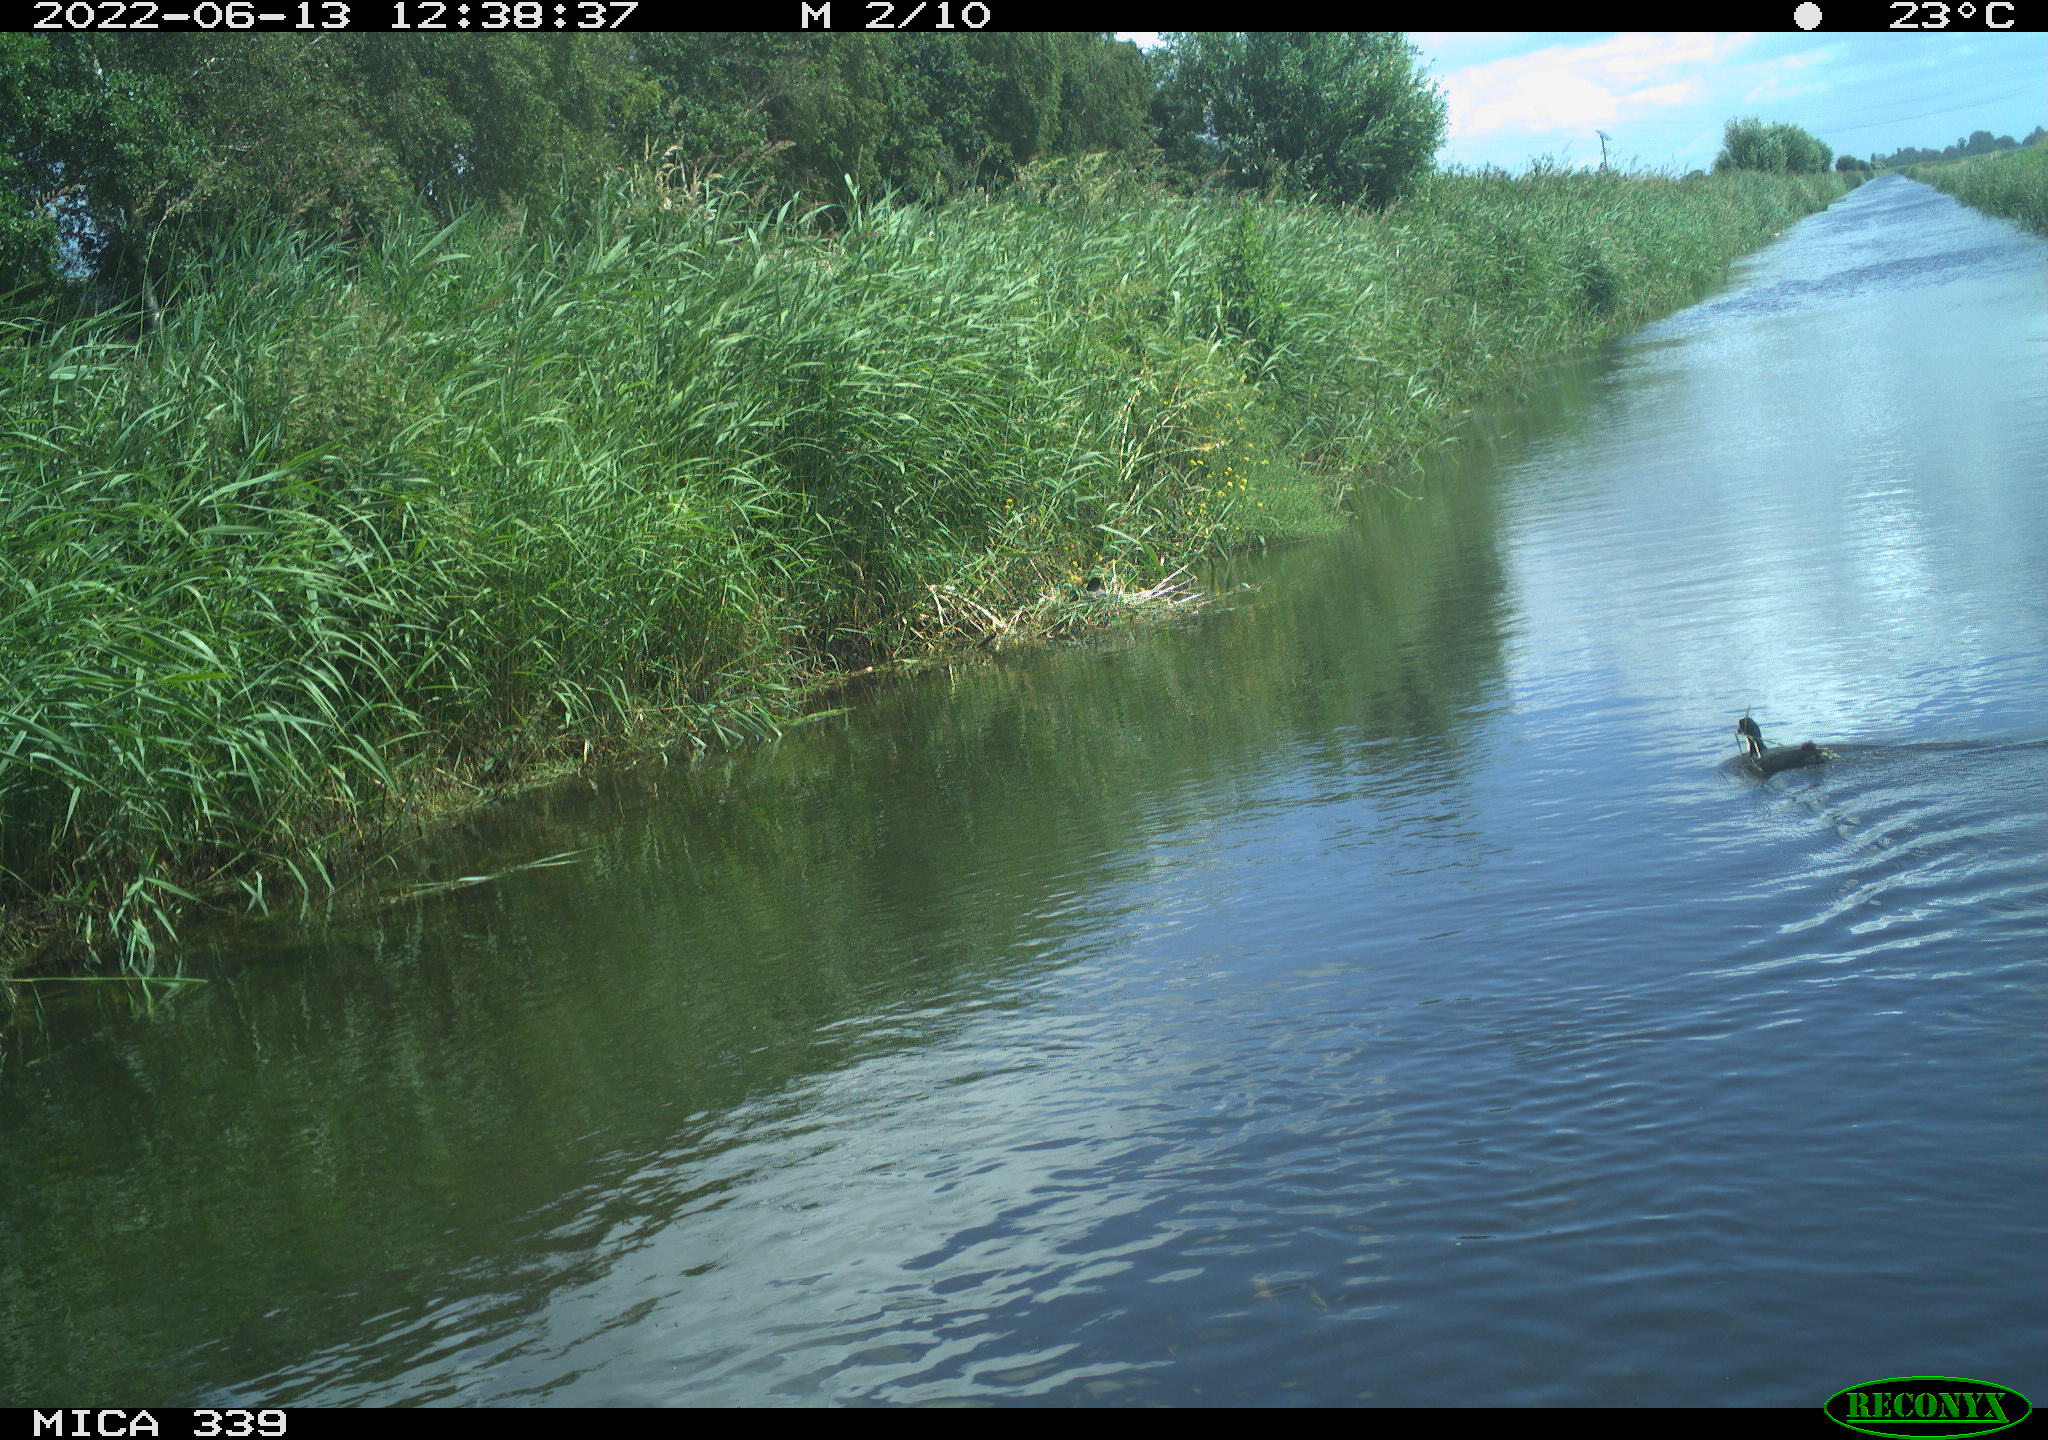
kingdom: Animalia
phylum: Chordata
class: Aves
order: Gruiformes
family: Rallidae
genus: Fulica
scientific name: Fulica atra
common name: Eurasian coot
